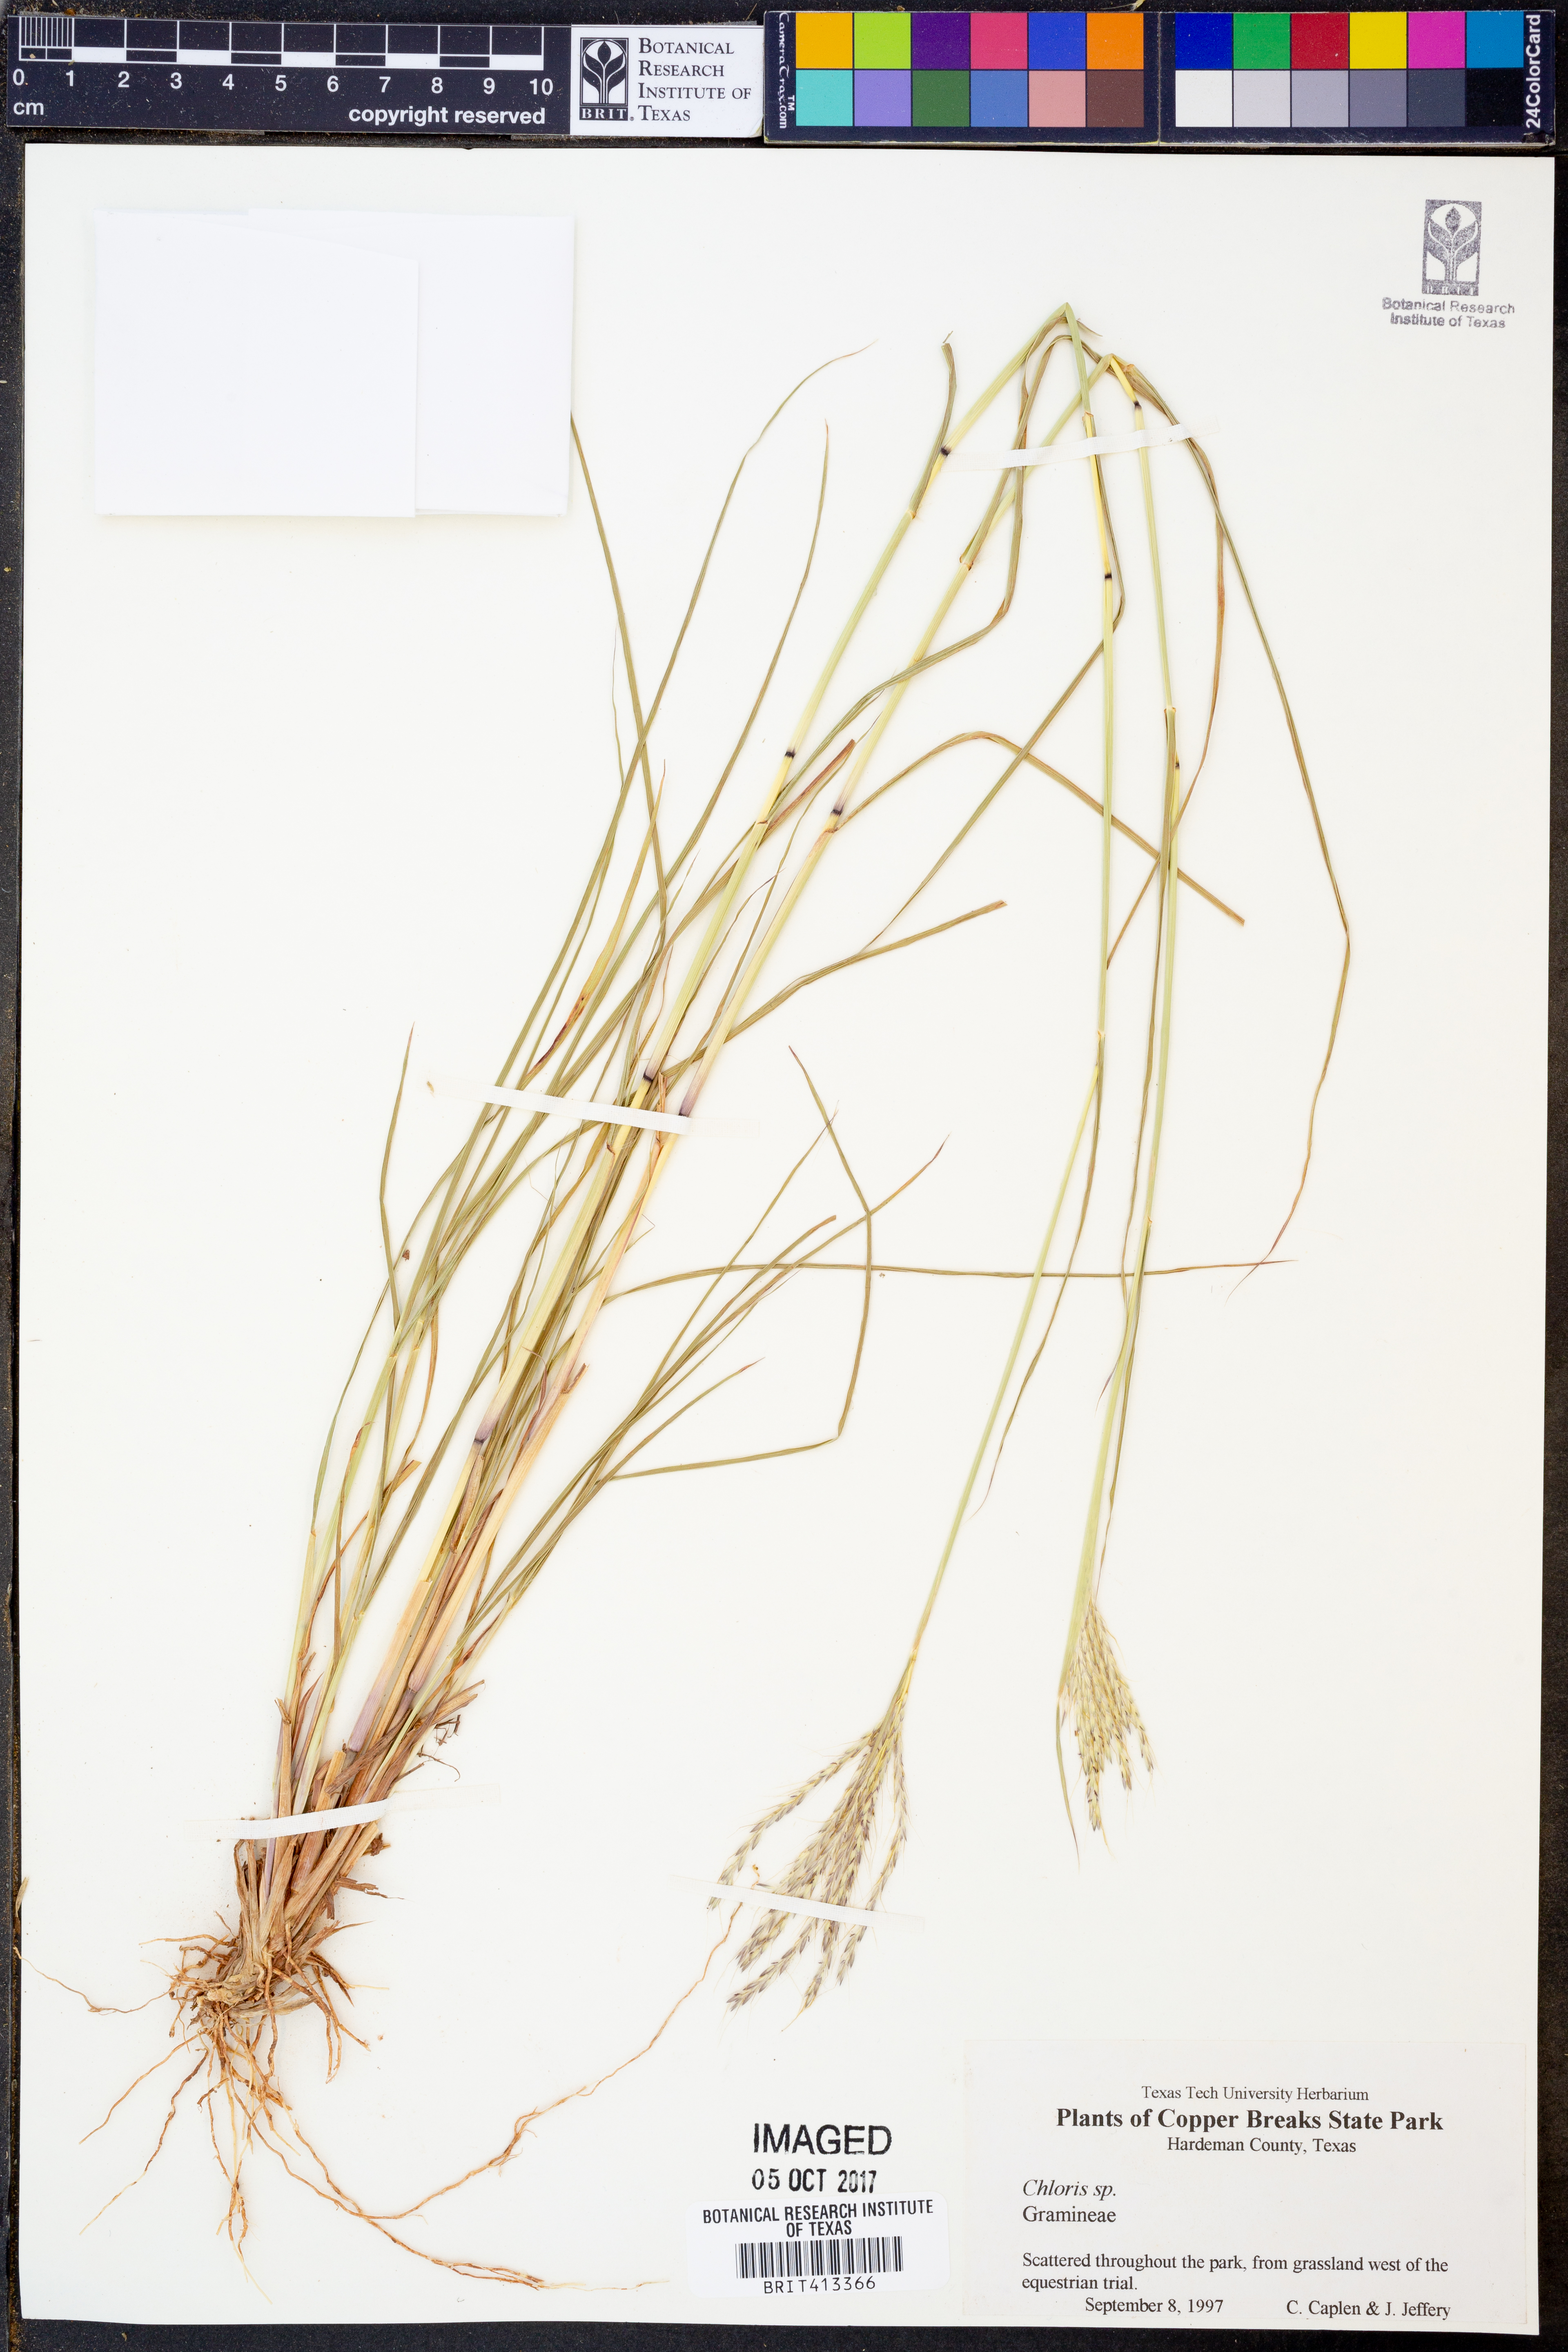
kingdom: Plantae
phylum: Tracheophyta
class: Liliopsida
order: Poales
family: Poaceae
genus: Chloris
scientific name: Chloris
